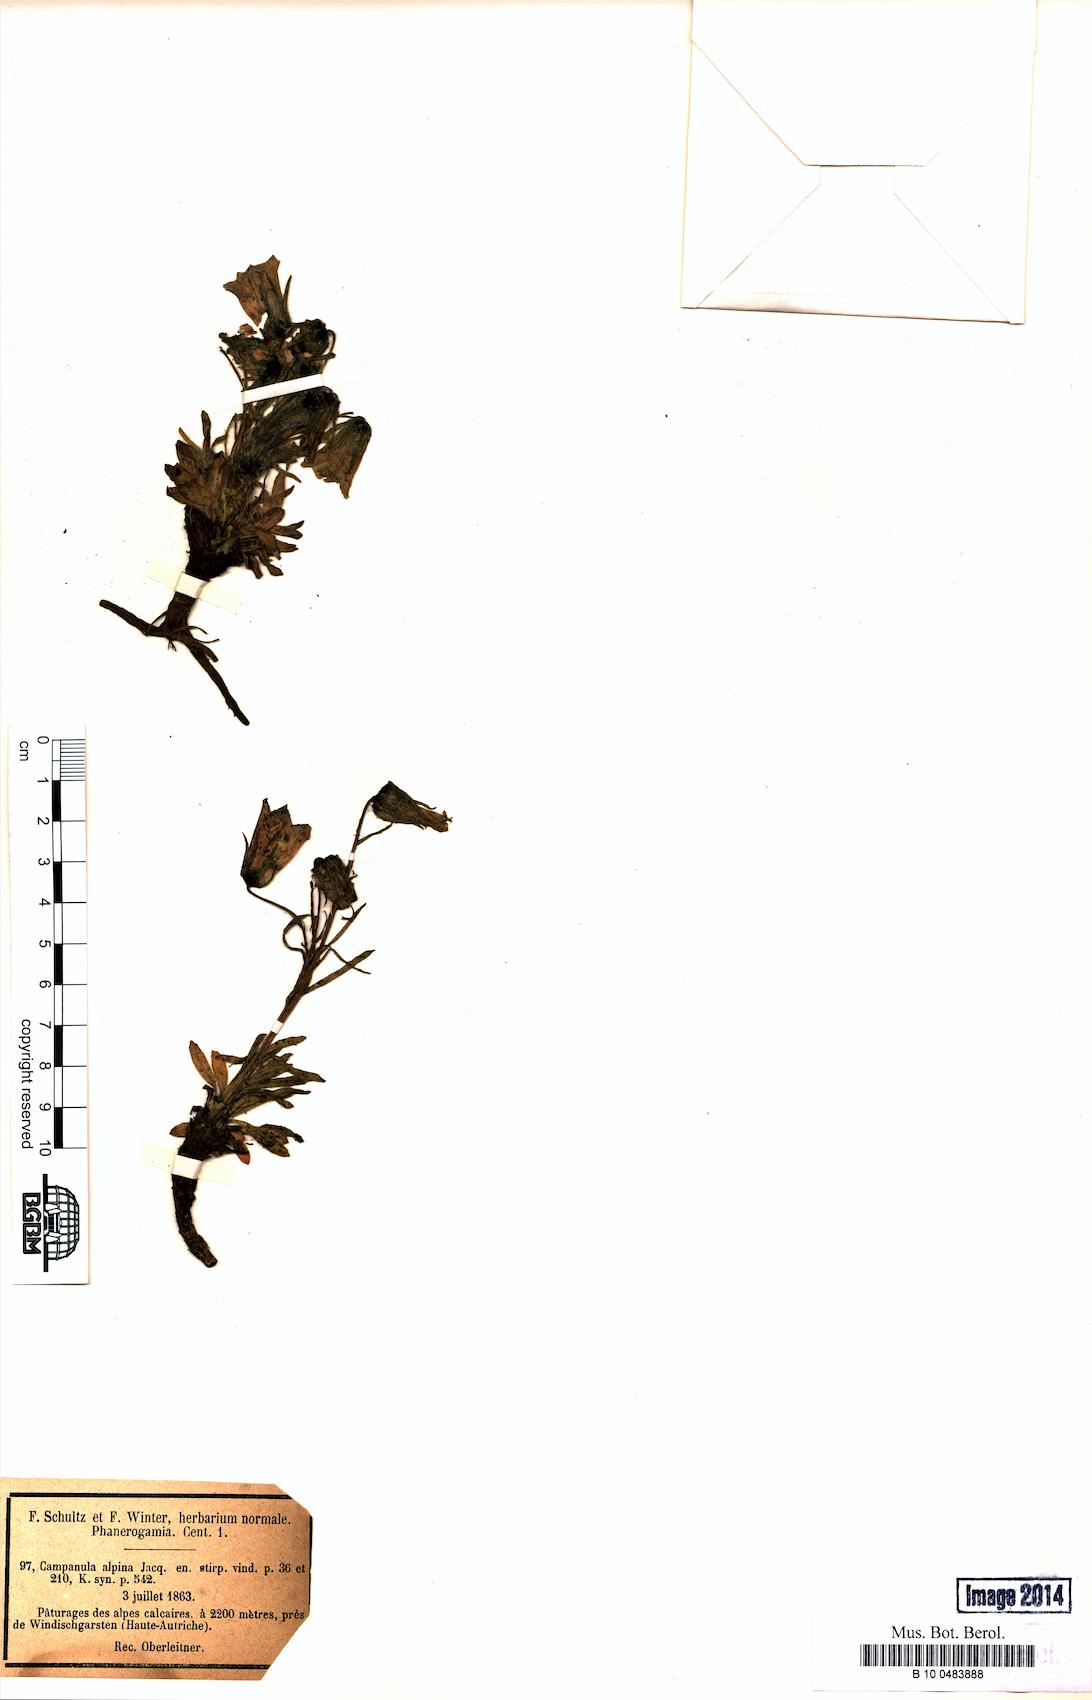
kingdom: Plantae
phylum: Tracheophyta
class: Magnoliopsida
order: Asterales
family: Campanulaceae
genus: Campanula
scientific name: Campanula alpina
